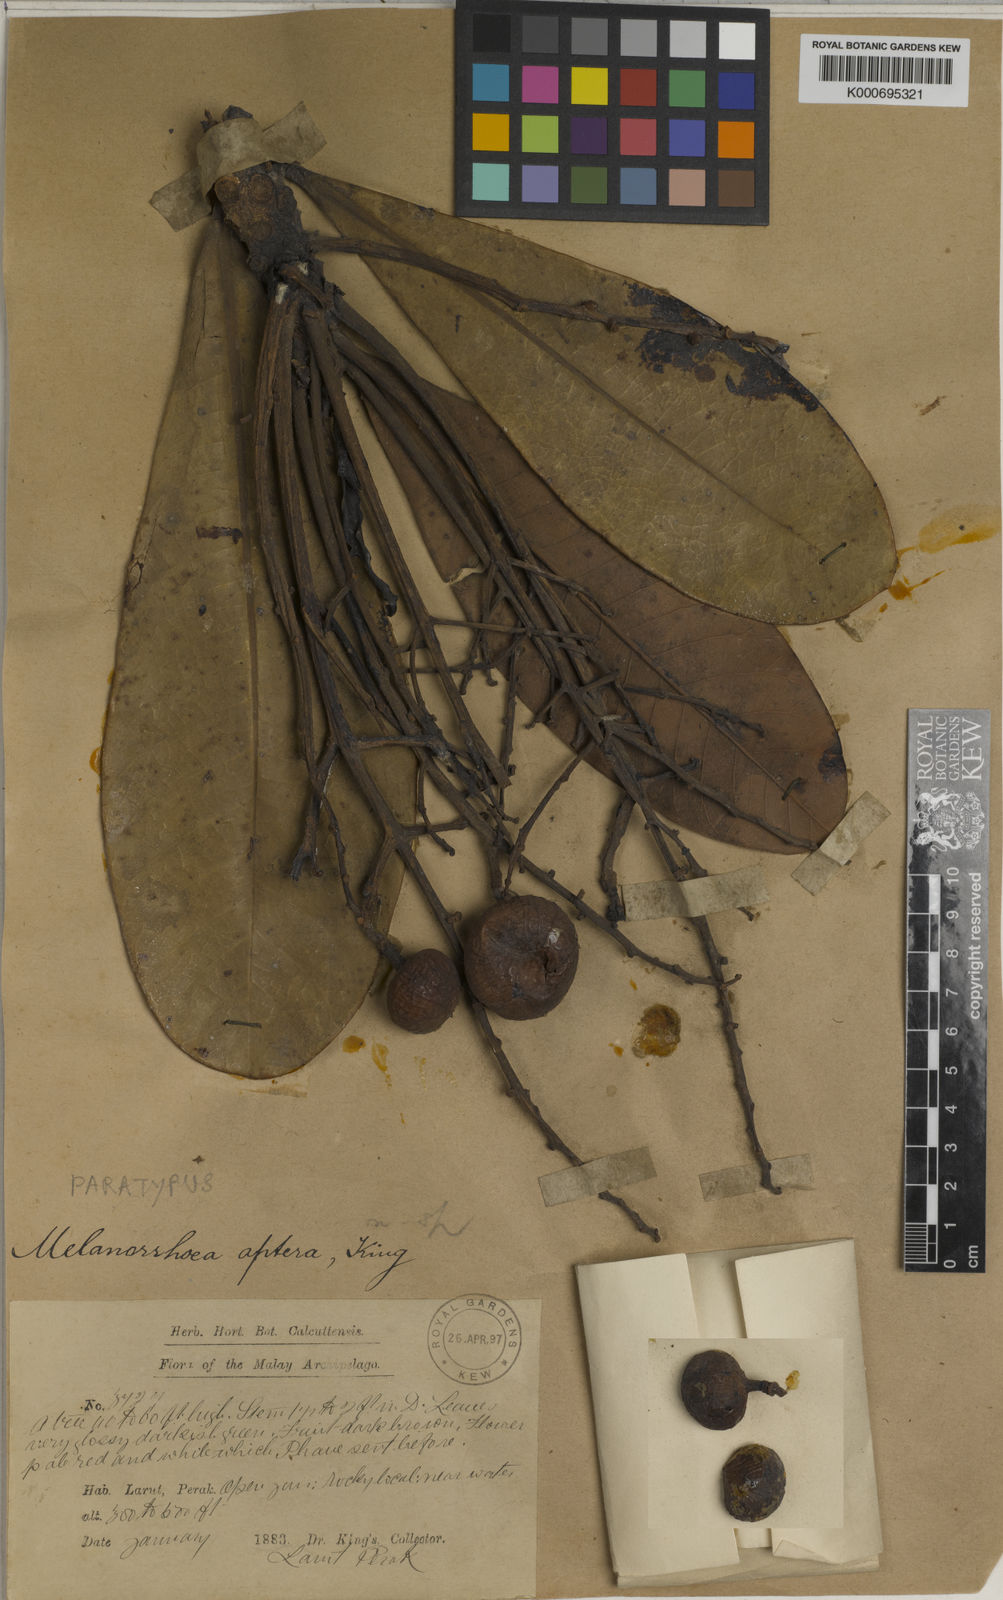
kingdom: Plantae
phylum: Tracheophyta
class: Magnoliopsida
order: Sapindales
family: Anacardiaceae
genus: Gluta
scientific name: Gluta aptera
